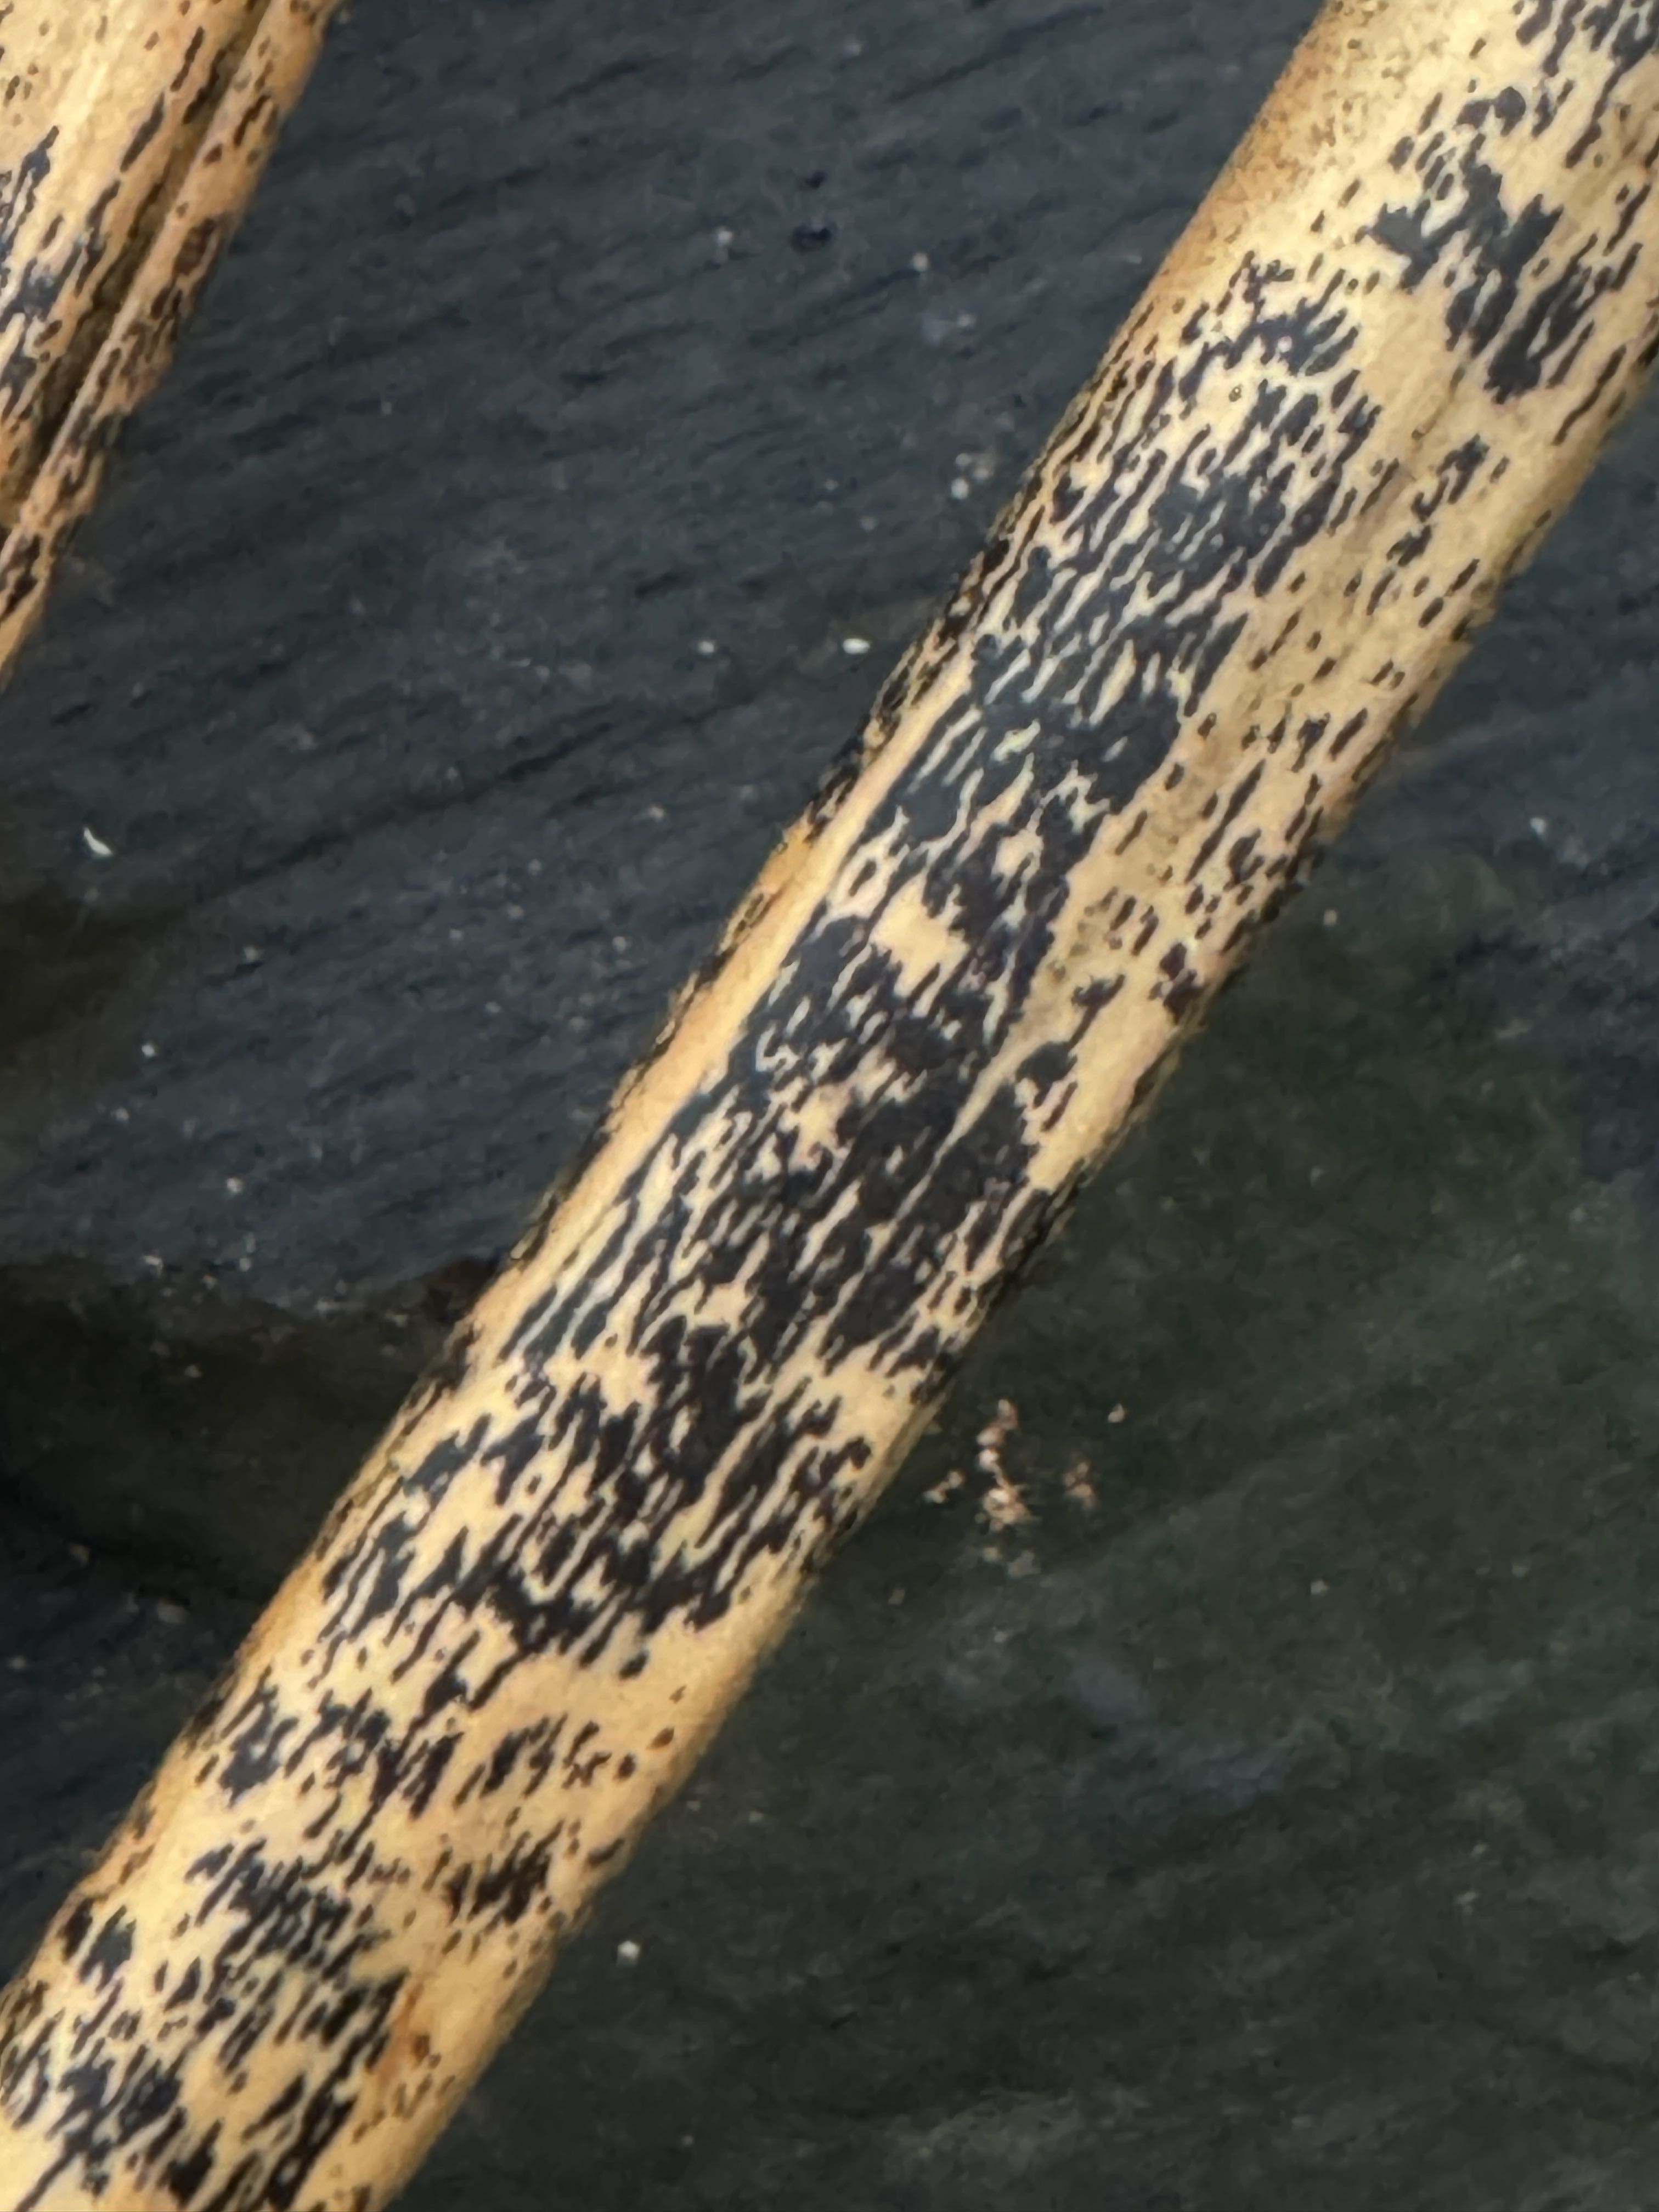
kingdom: Fungi
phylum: Ascomycota
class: Dothideomycetes
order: Pleosporales
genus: Rhopographus
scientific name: Rhopographus filicinus
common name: Bracken map
